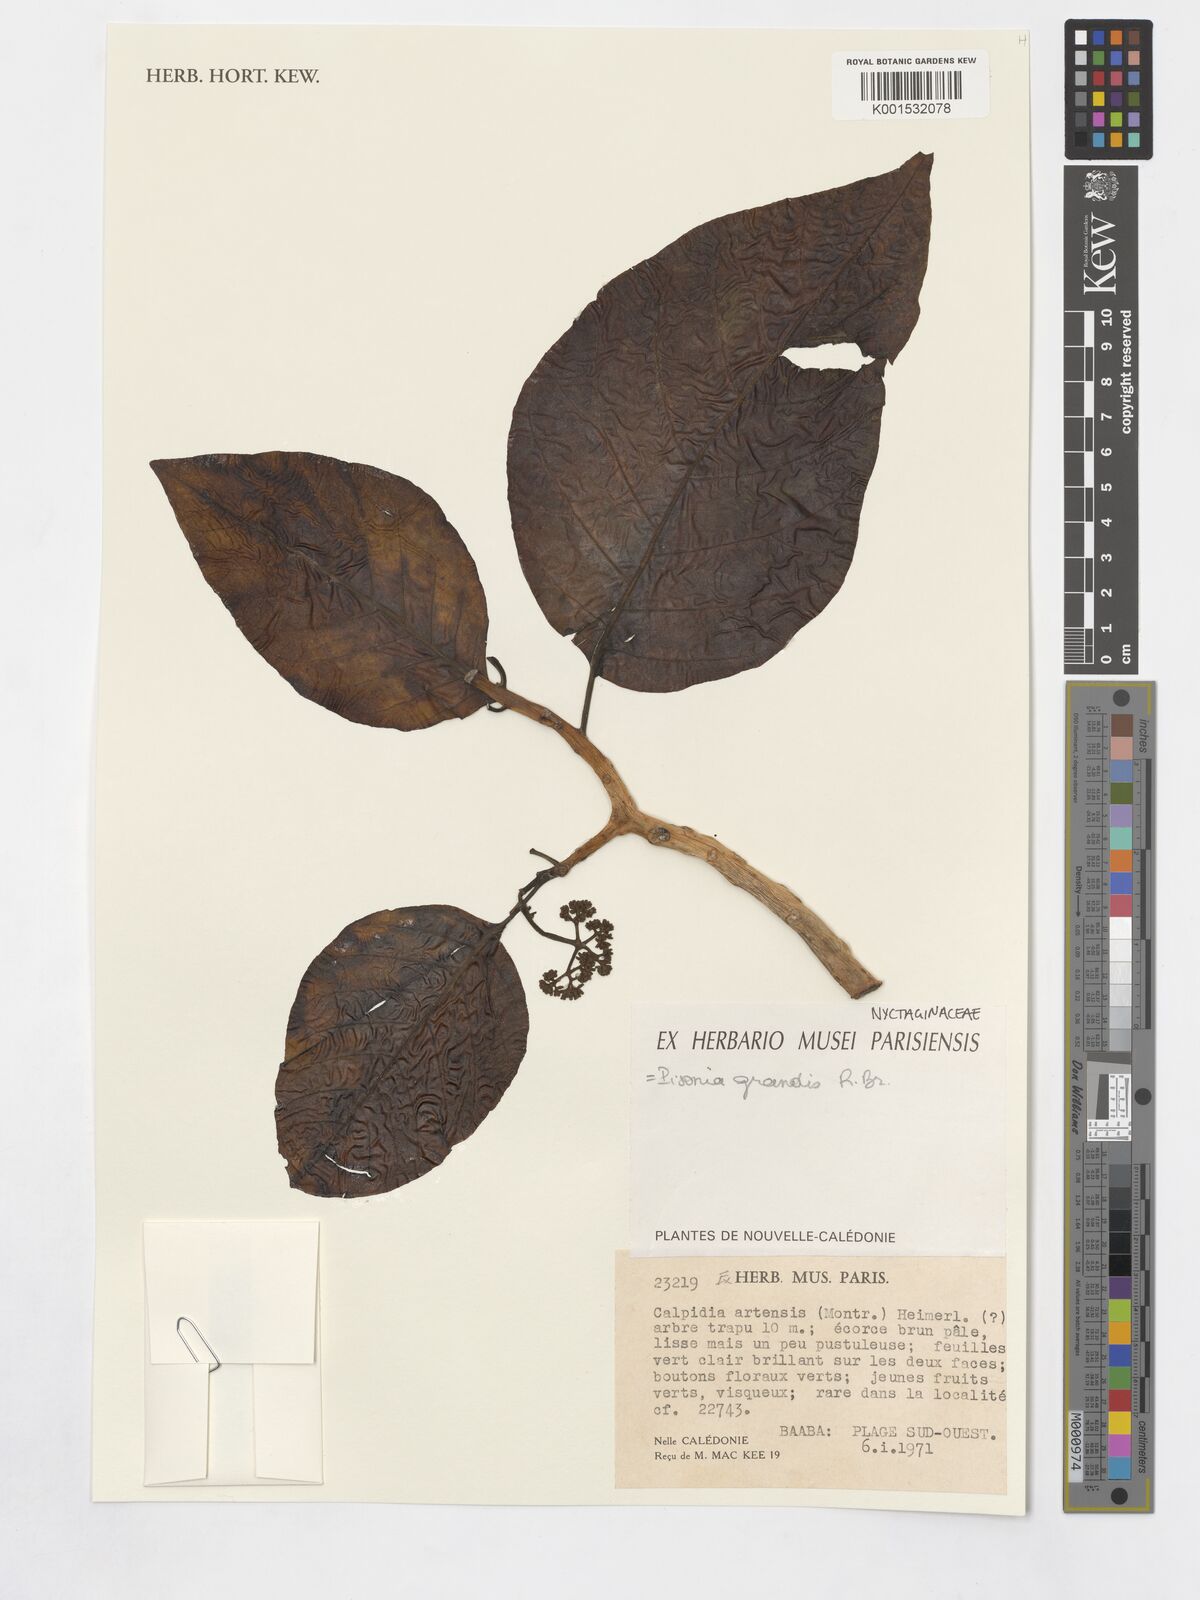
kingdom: Plantae
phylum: Tracheophyta
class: Magnoliopsida
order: Caryophyllales
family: Nyctaginaceae
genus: Ceodes
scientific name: Ceodes grandis
